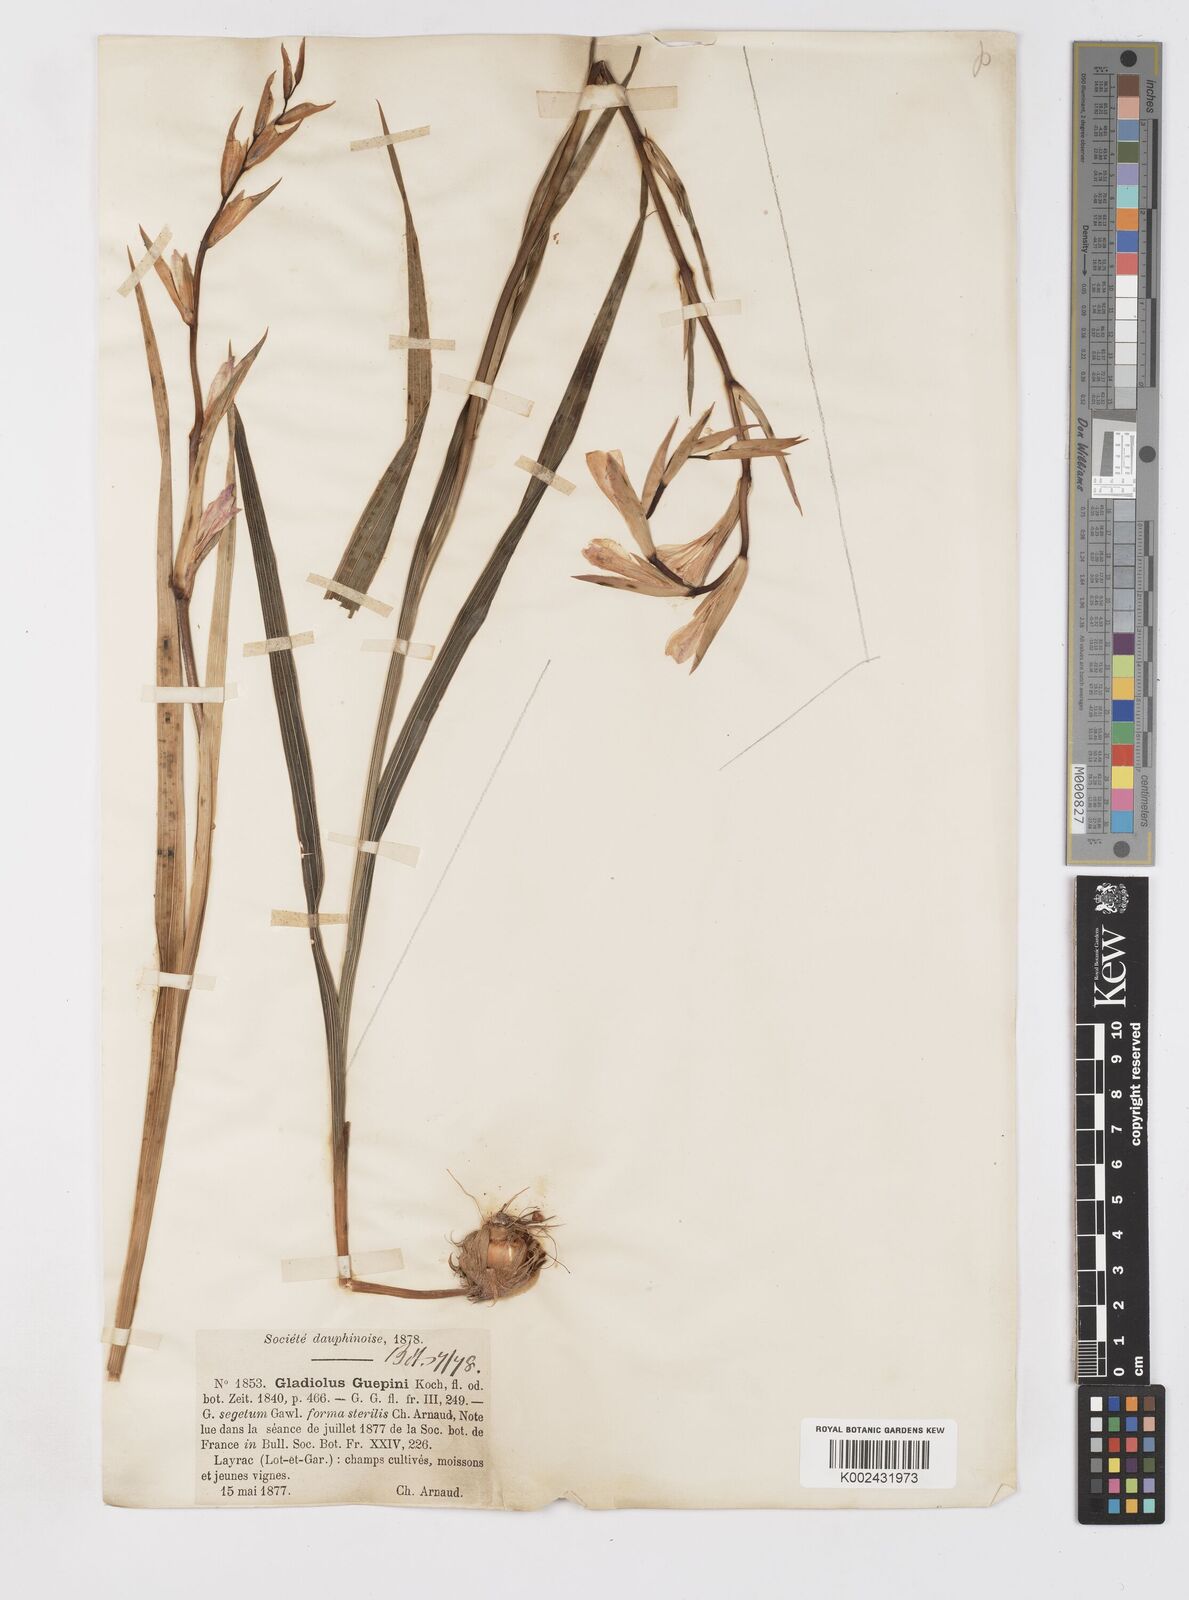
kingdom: Plantae
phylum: Tracheophyta
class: Liliopsida
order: Asparagales
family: Iridaceae
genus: Gladiolus
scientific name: Gladiolus italicus
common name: Field gladiolus
